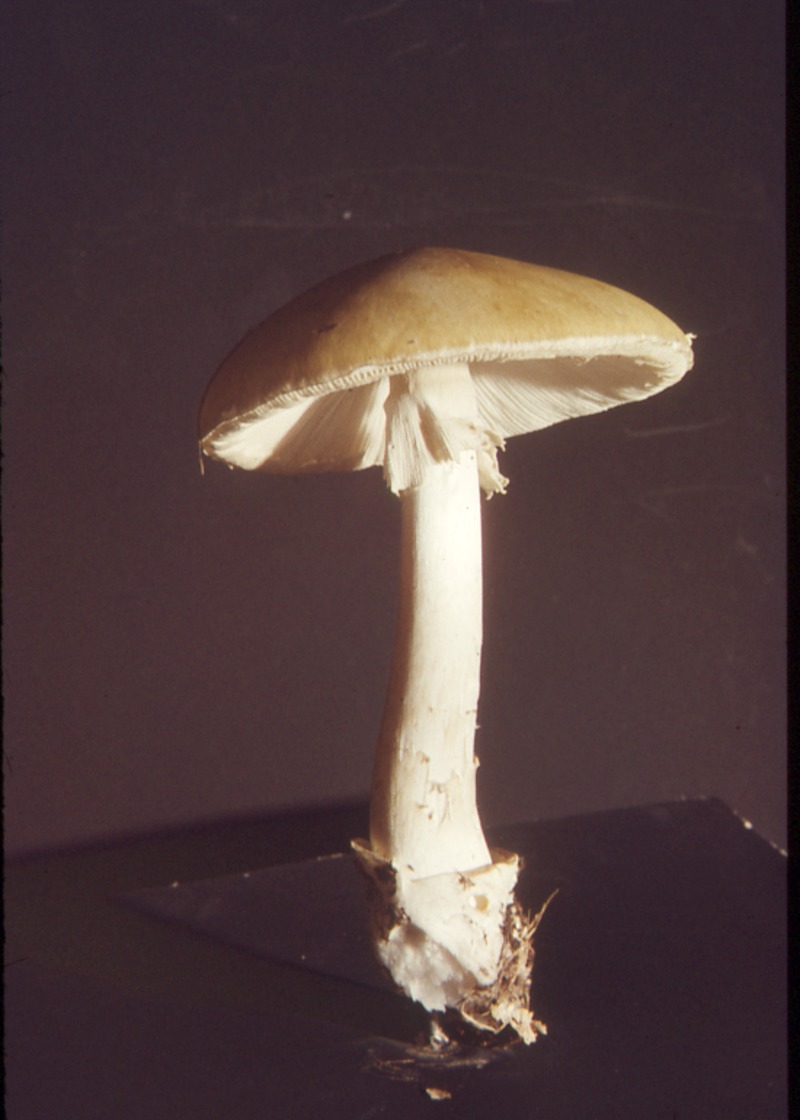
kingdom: Fungi
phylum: Basidiomycota
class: Agaricomycetes
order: Agaricales
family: Amanitaceae
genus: Amanita
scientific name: Amanita phalloides
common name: Death cap
